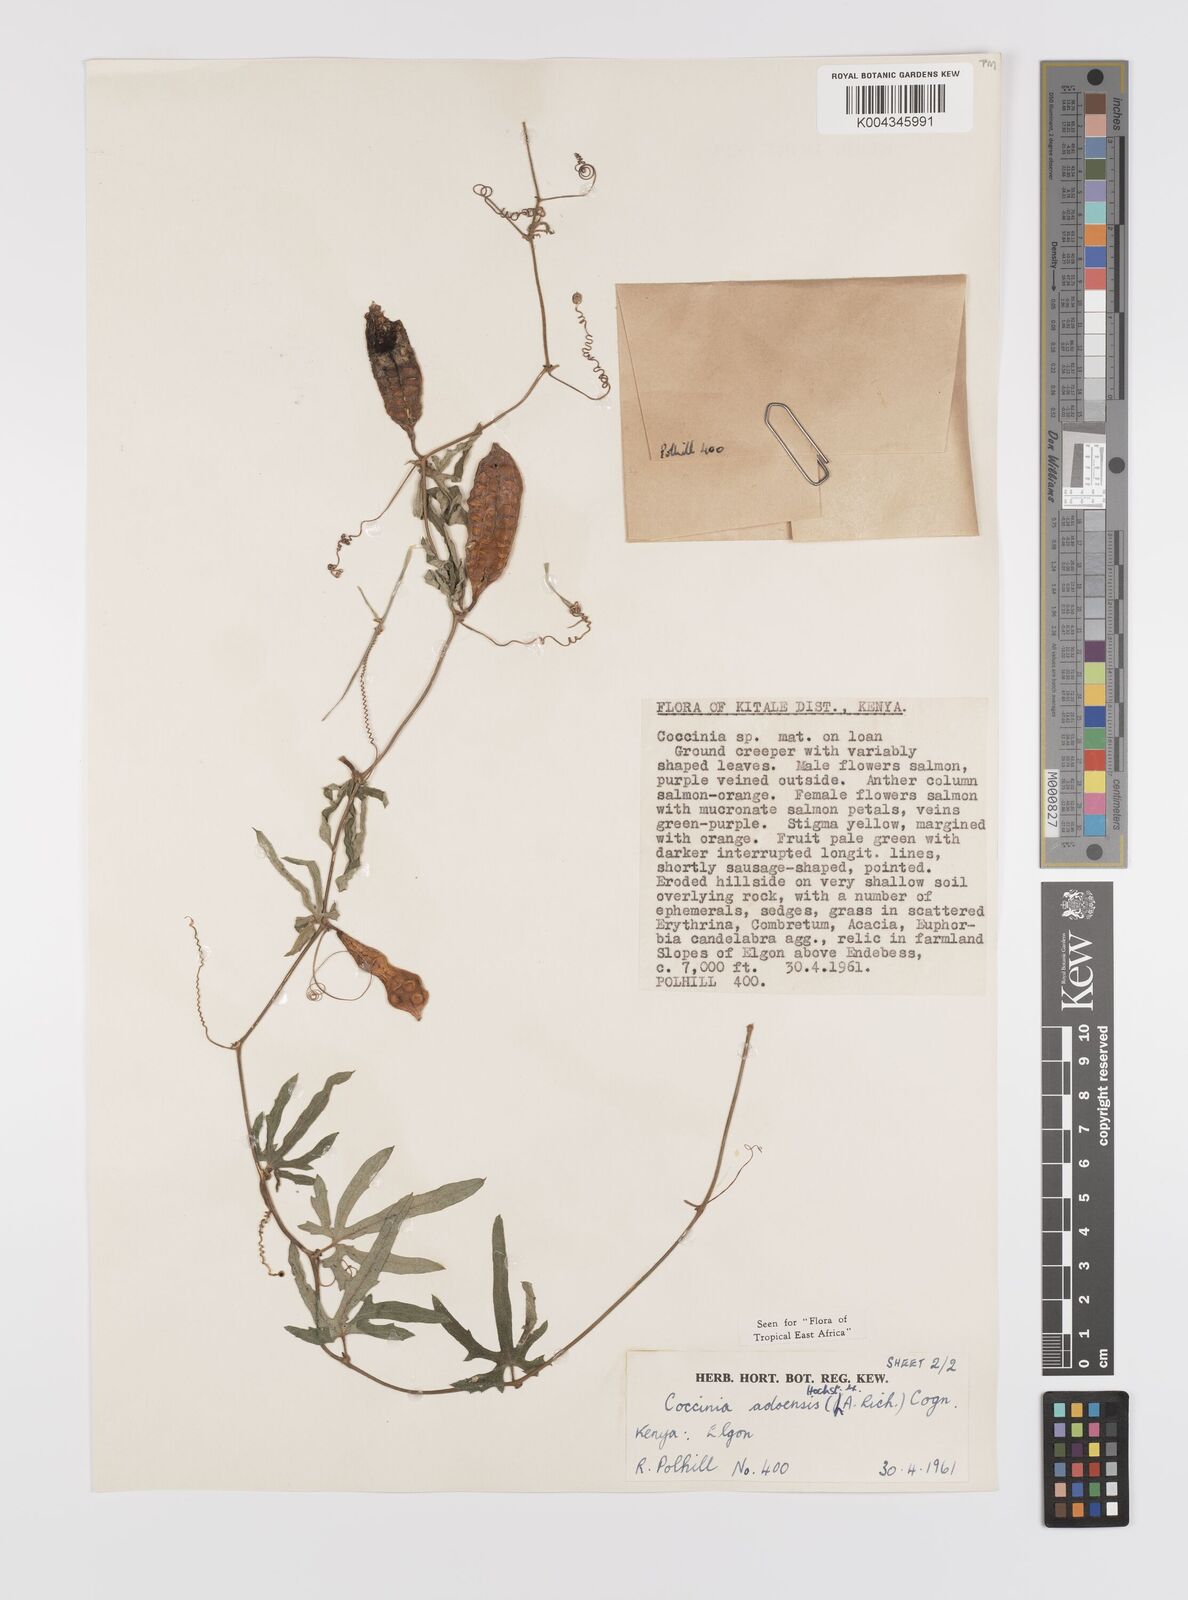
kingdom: Plantae
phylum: Tracheophyta
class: Magnoliopsida
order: Cucurbitales
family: Cucurbitaceae
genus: Coccinia
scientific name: Coccinia adoensis
